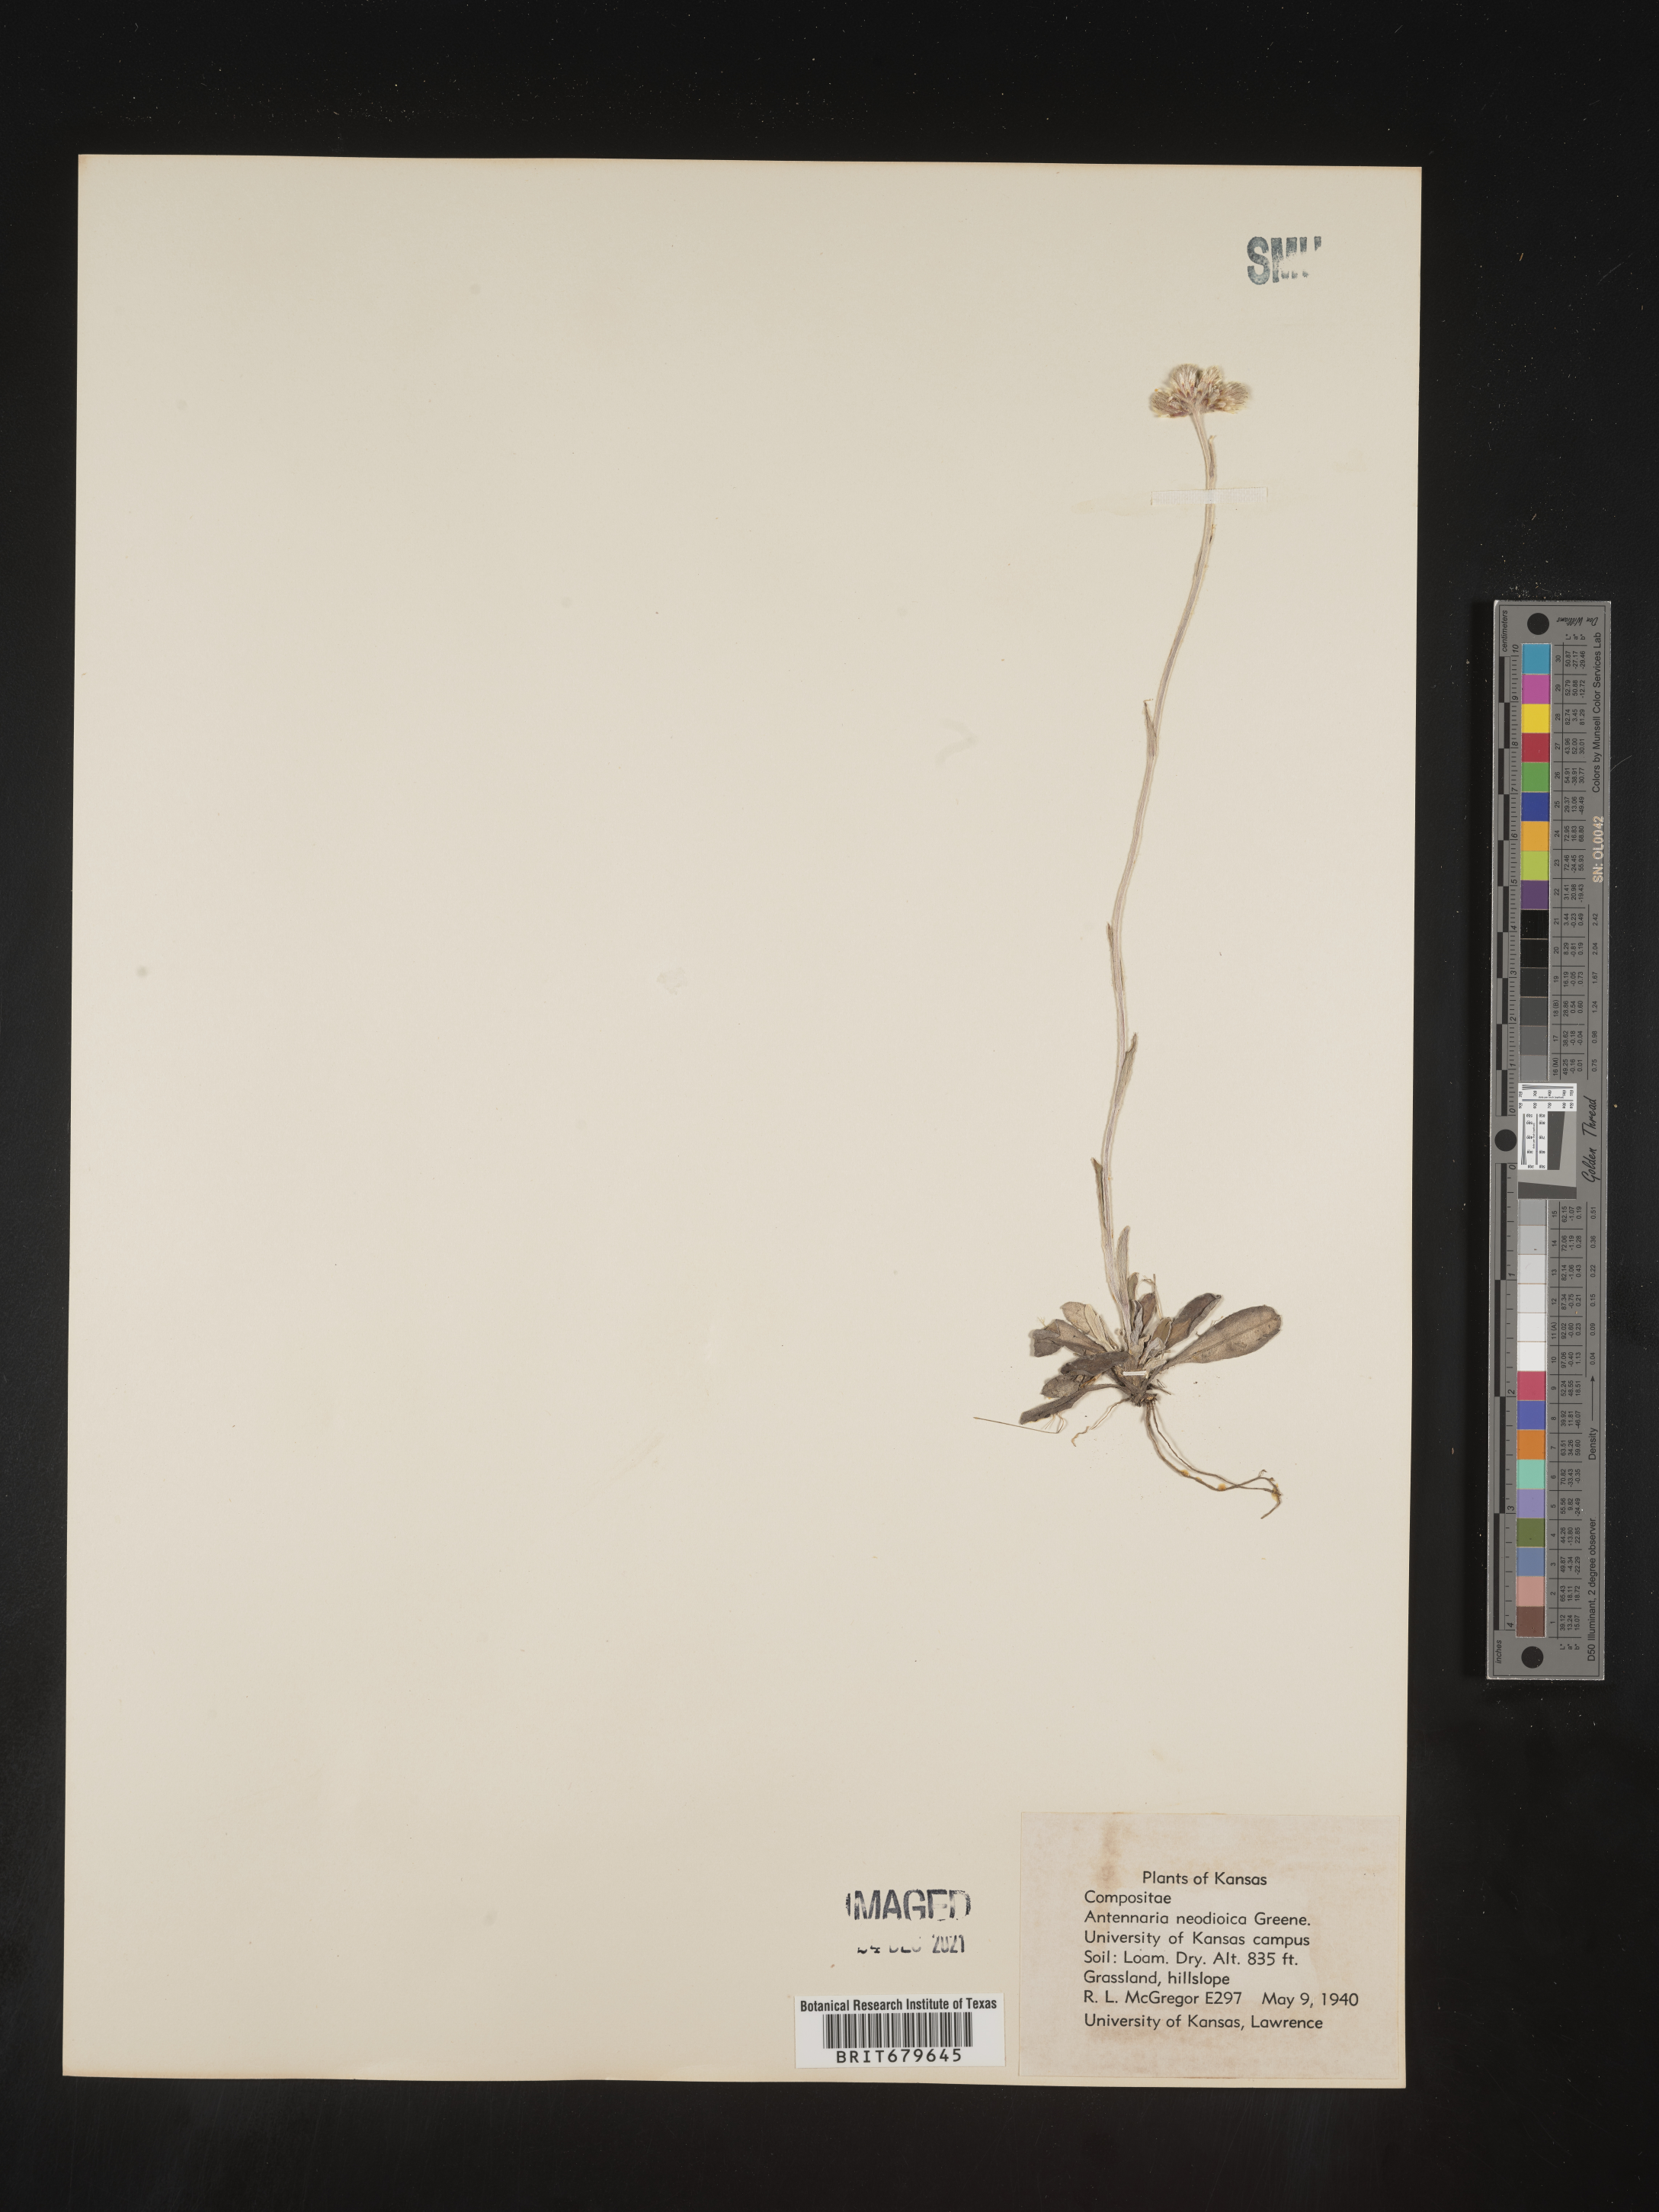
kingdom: Plantae
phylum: Tracheophyta
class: Magnoliopsida
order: Asterales
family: Asteraceae
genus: Antennaria
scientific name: Antennaria howellii
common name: Howell's pussytoes
